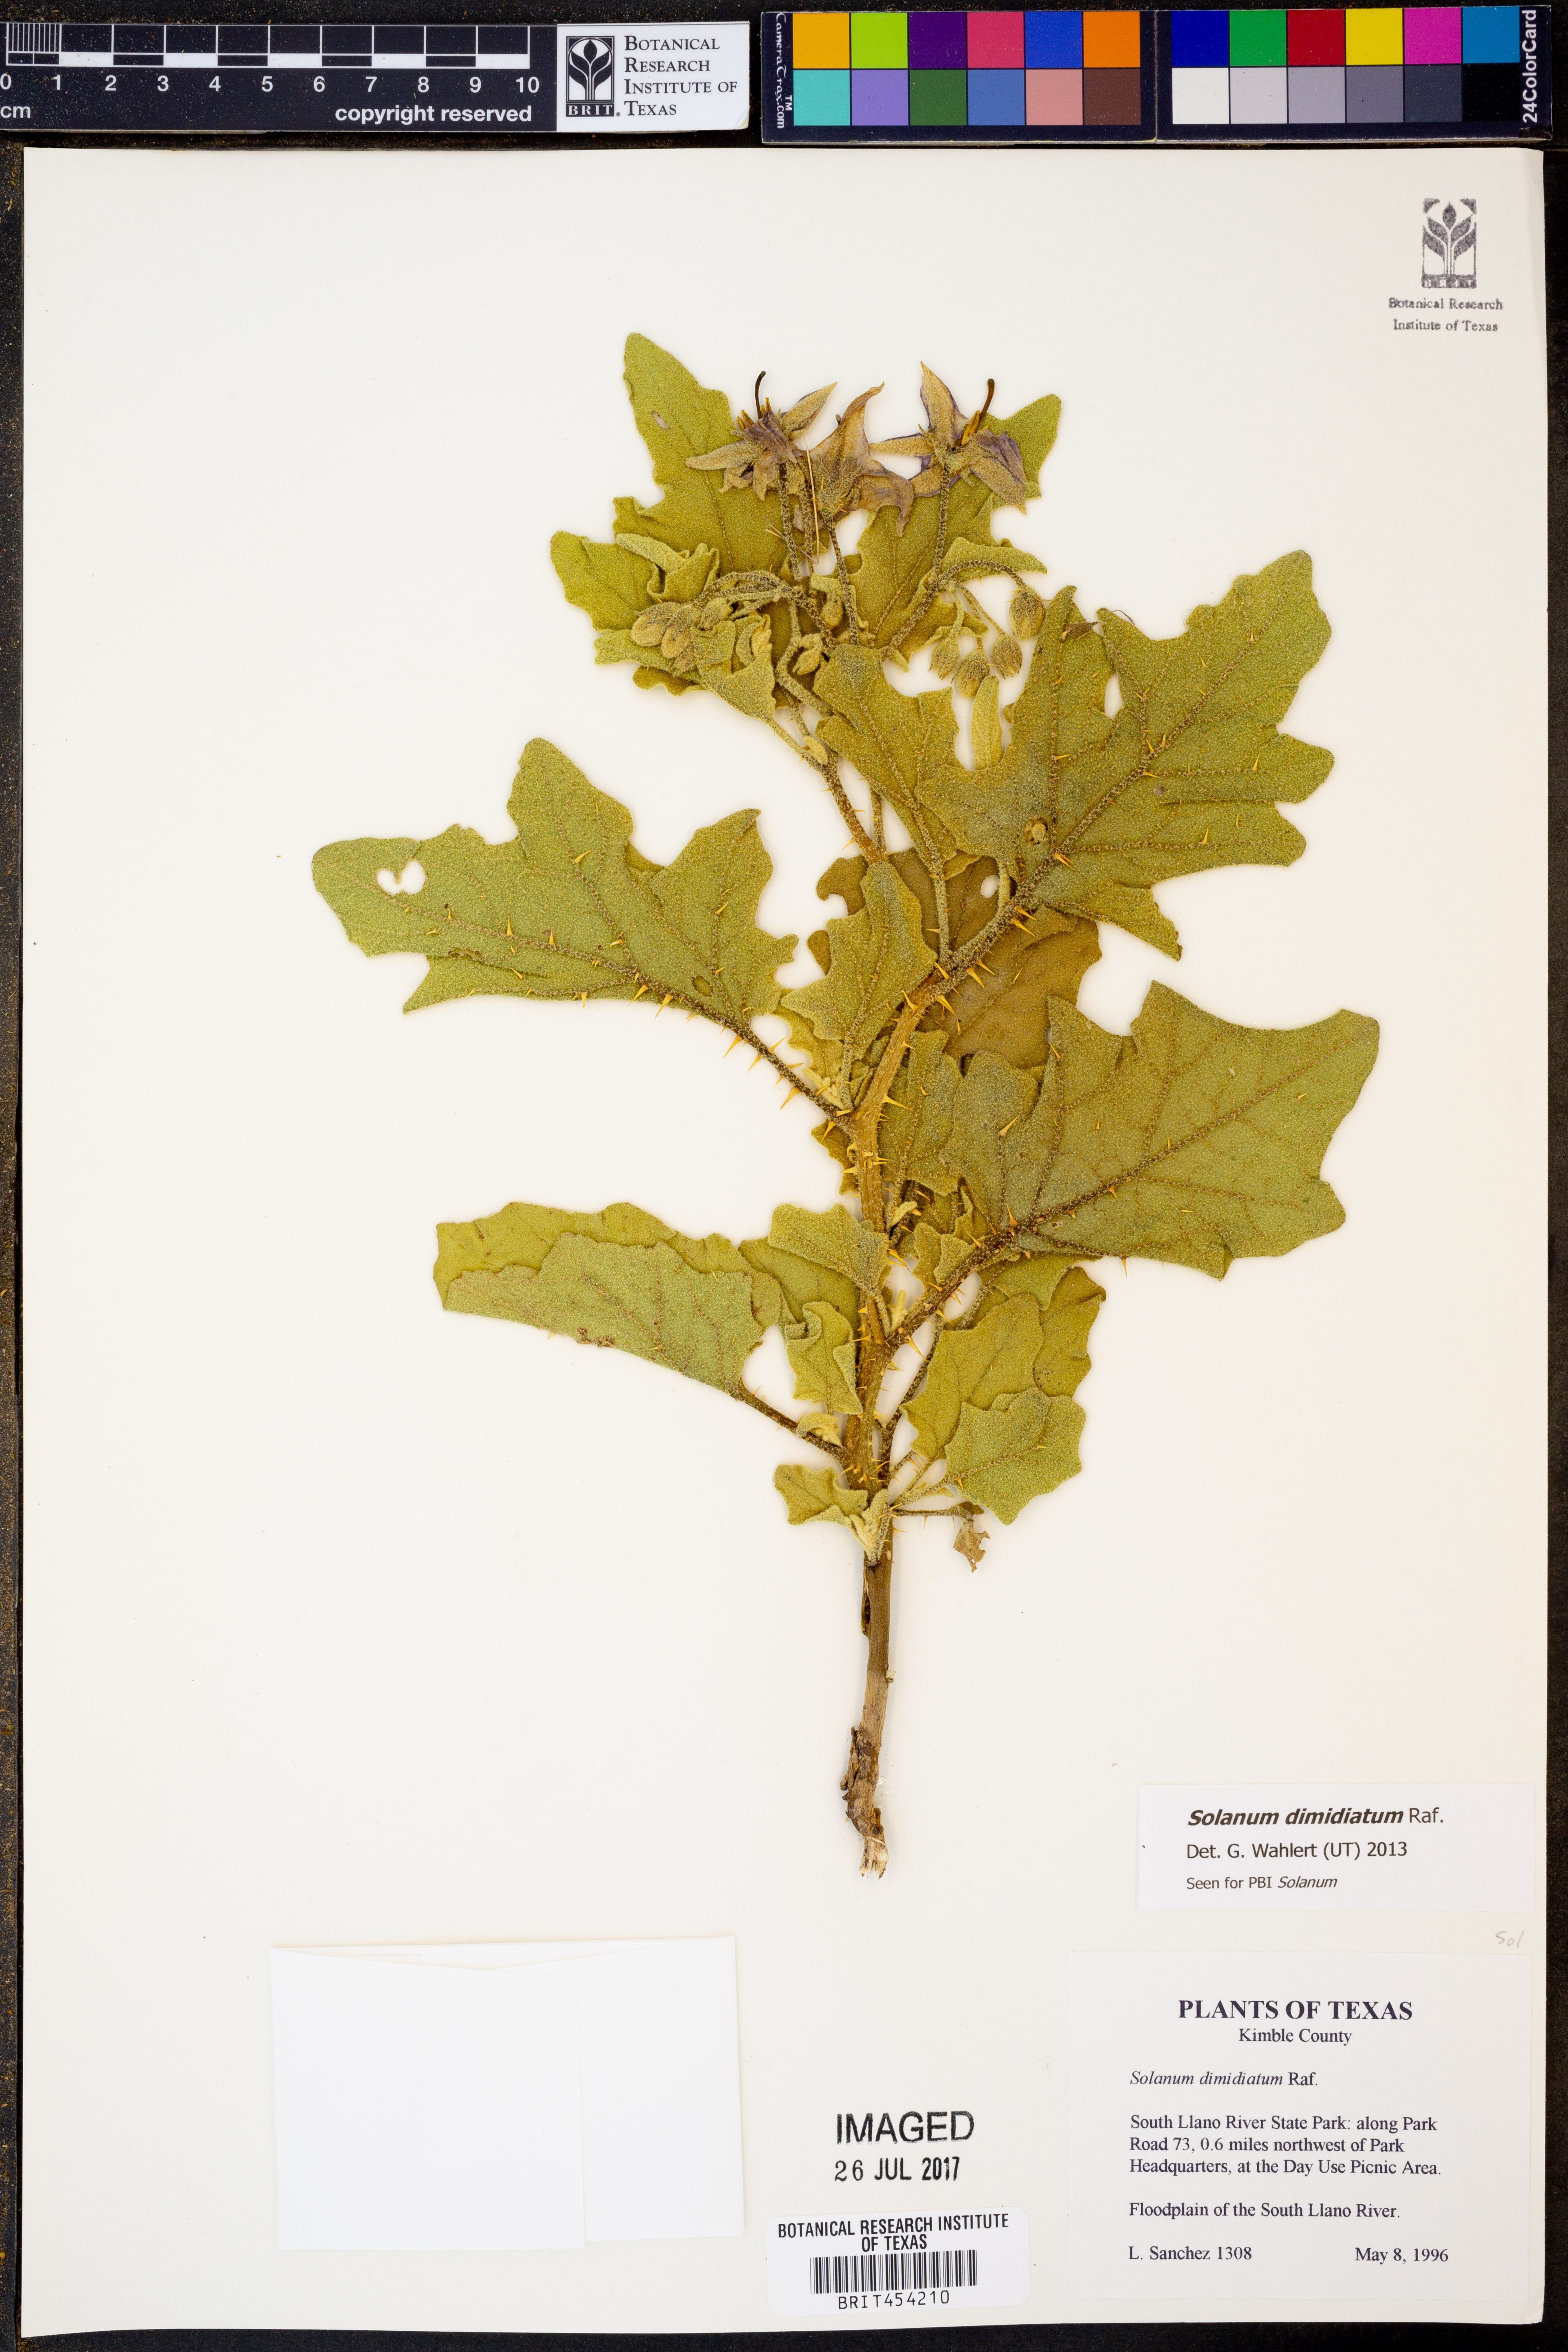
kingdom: Plantae
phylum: Tracheophyta
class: Magnoliopsida
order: Solanales
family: Solanaceae
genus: Solanum
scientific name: Solanum dimidiatum
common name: Carolina horse-nettle
